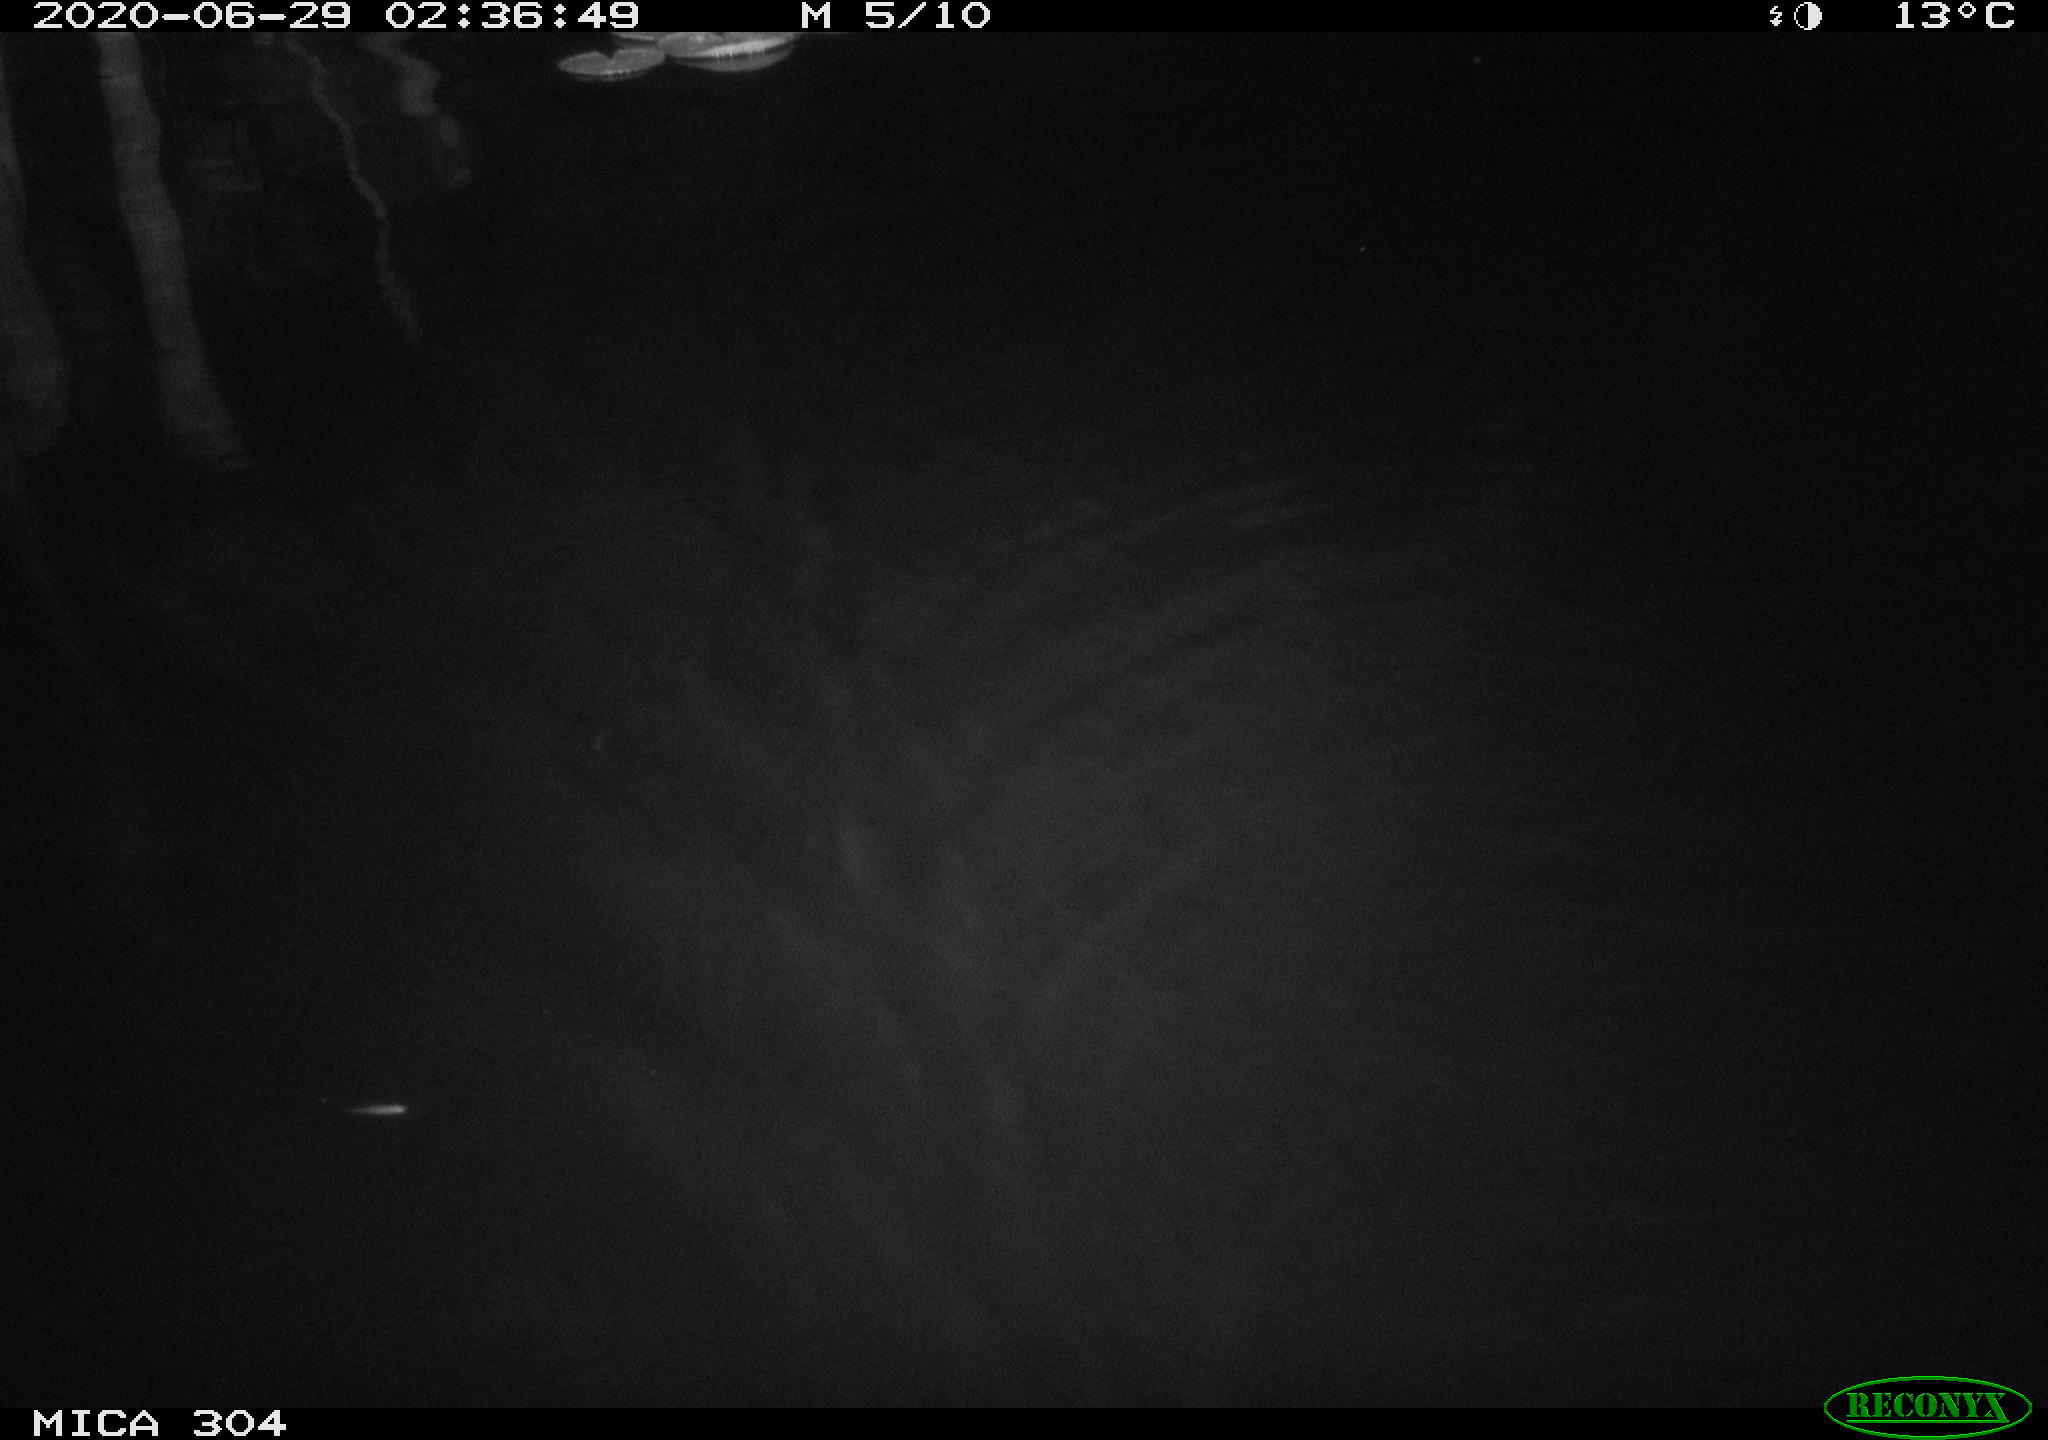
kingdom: Animalia
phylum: Chordata
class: Mammalia
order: Rodentia
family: Cricetidae
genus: Ondatra
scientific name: Ondatra zibethicus
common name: Muskrat
